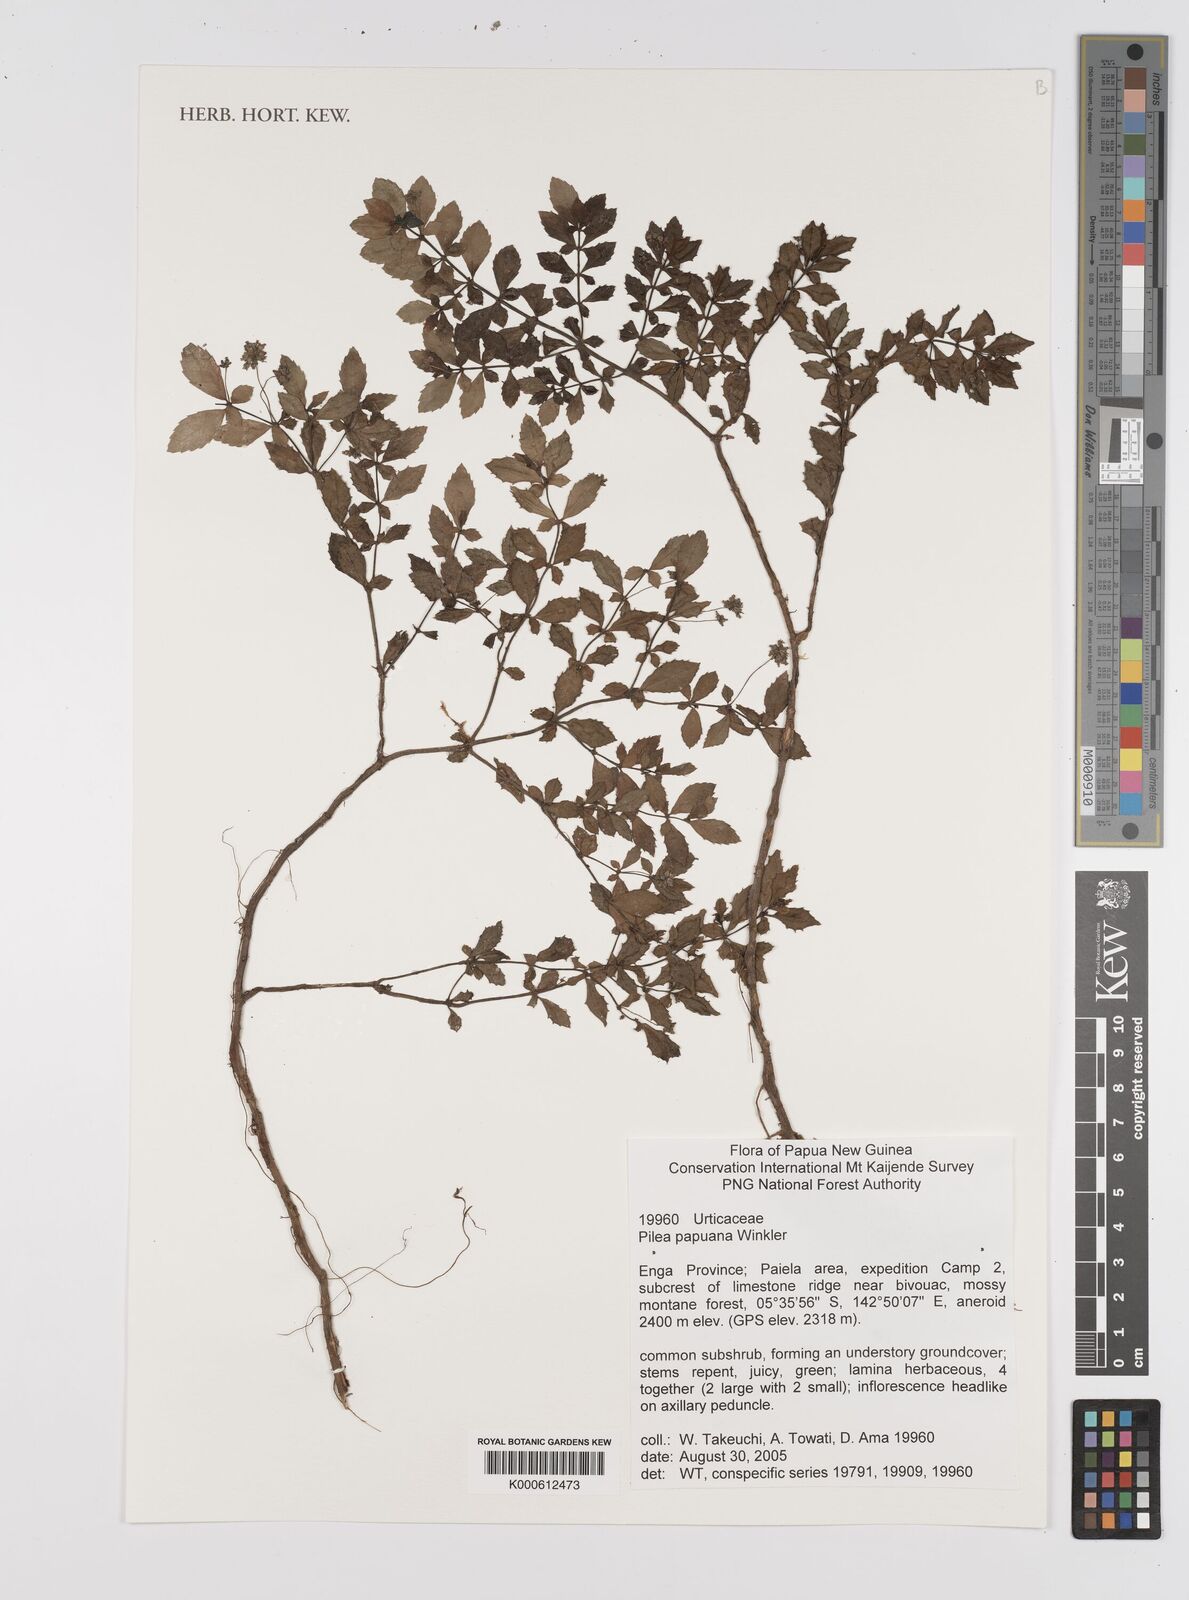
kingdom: Plantae
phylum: Tracheophyta
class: Magnoliopsida
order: Rosales
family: Urticaceae
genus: Pilea
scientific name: Pilea papuana
